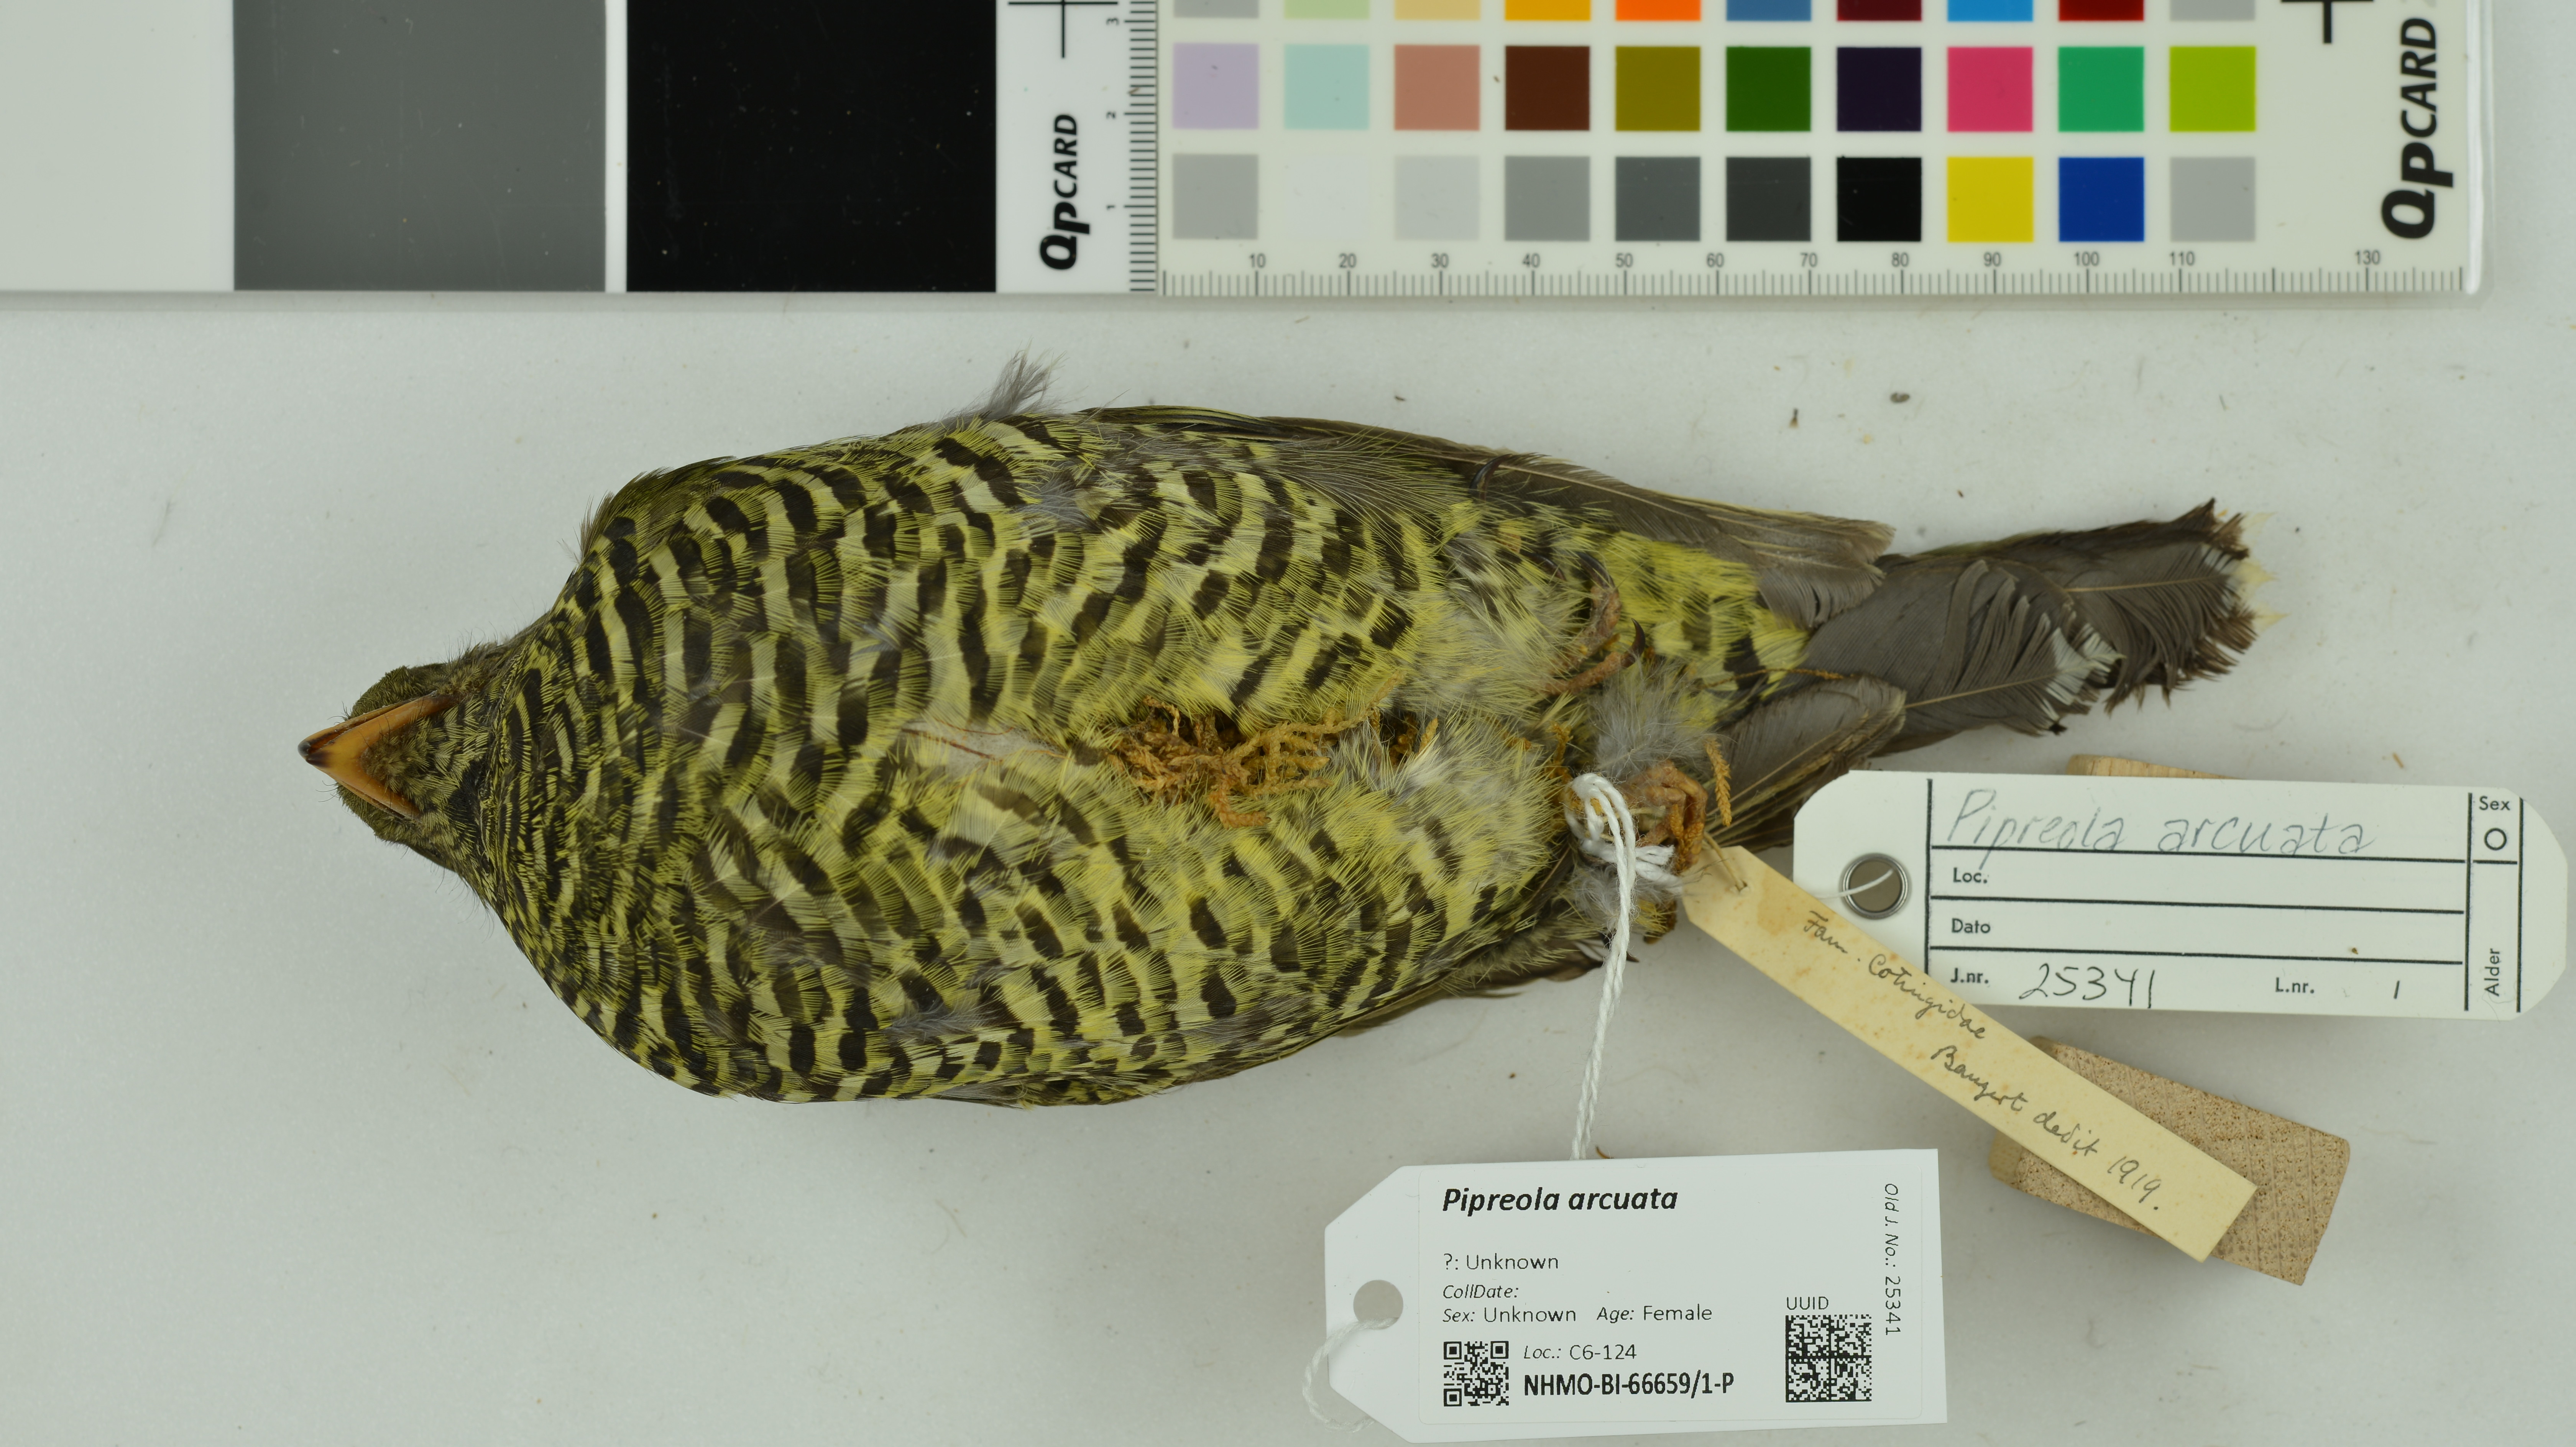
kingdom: Animalia
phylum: Chordata
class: Aves
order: Passeriformes
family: Cotingidae
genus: Pipreola
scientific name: Pipreola arcuata
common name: Barred fruiteater
